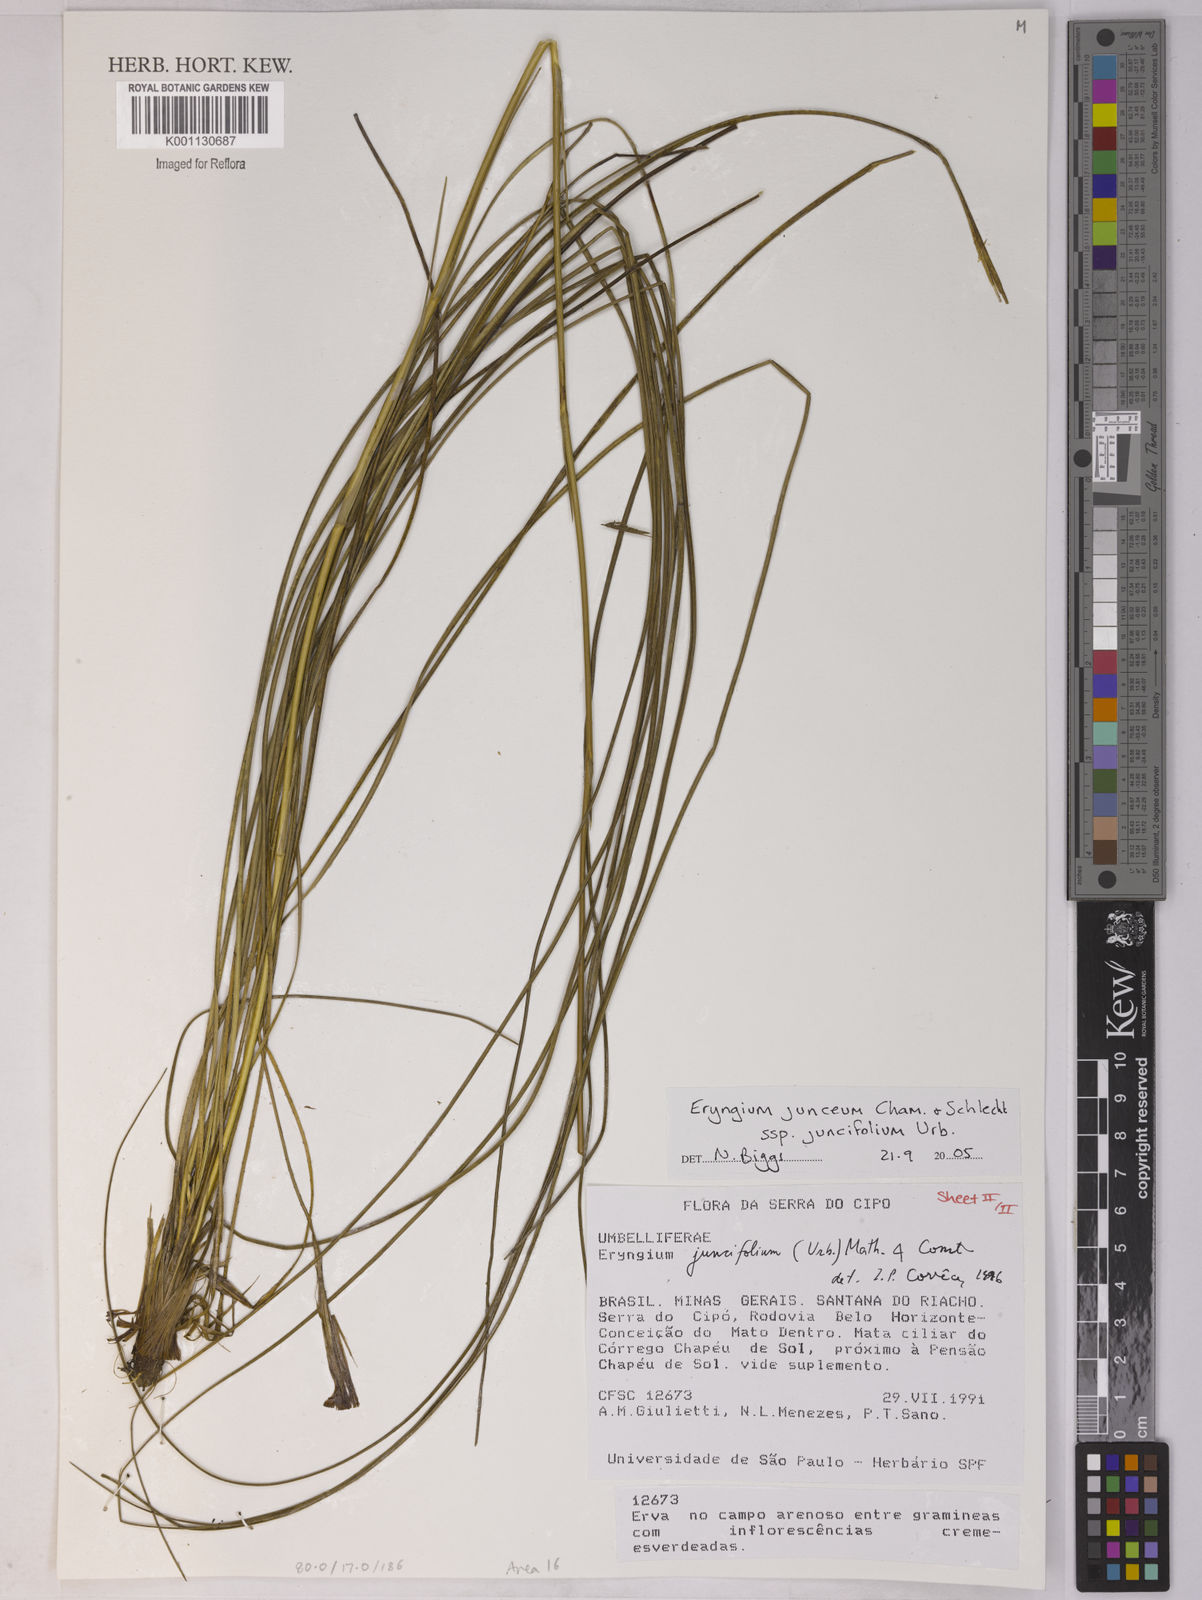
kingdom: Plantae
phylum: Tracheophyta
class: Magnoliopsida
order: Apiales
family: Apiaceae
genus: Eryngium
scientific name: Eryngium juncifolium
